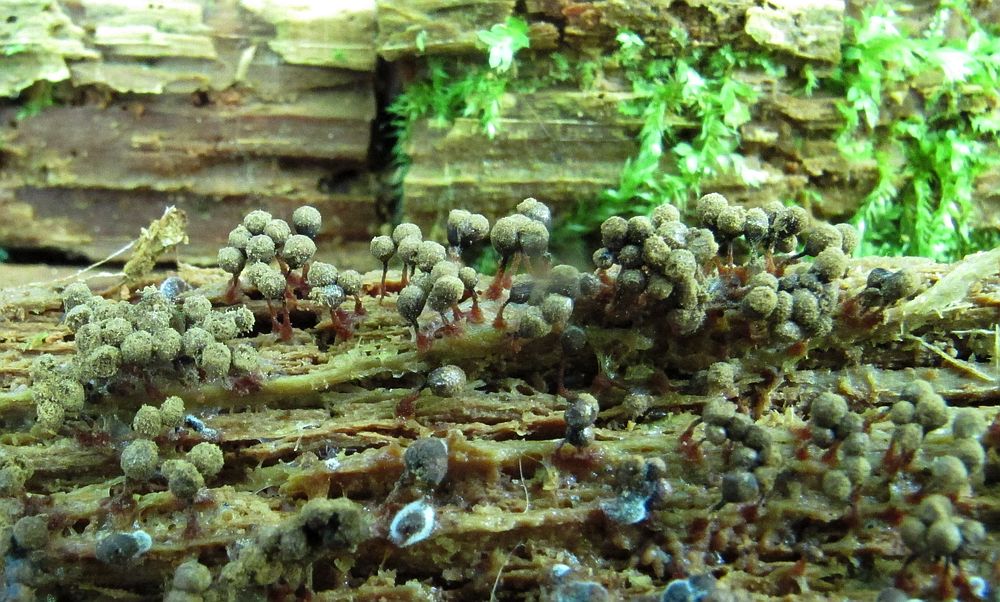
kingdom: Protozoa
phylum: Mycetozoa
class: Myxomycetes
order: Cribrariales
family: Cribrariaceae
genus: Cribraria
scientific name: Cribraria mirabilis
